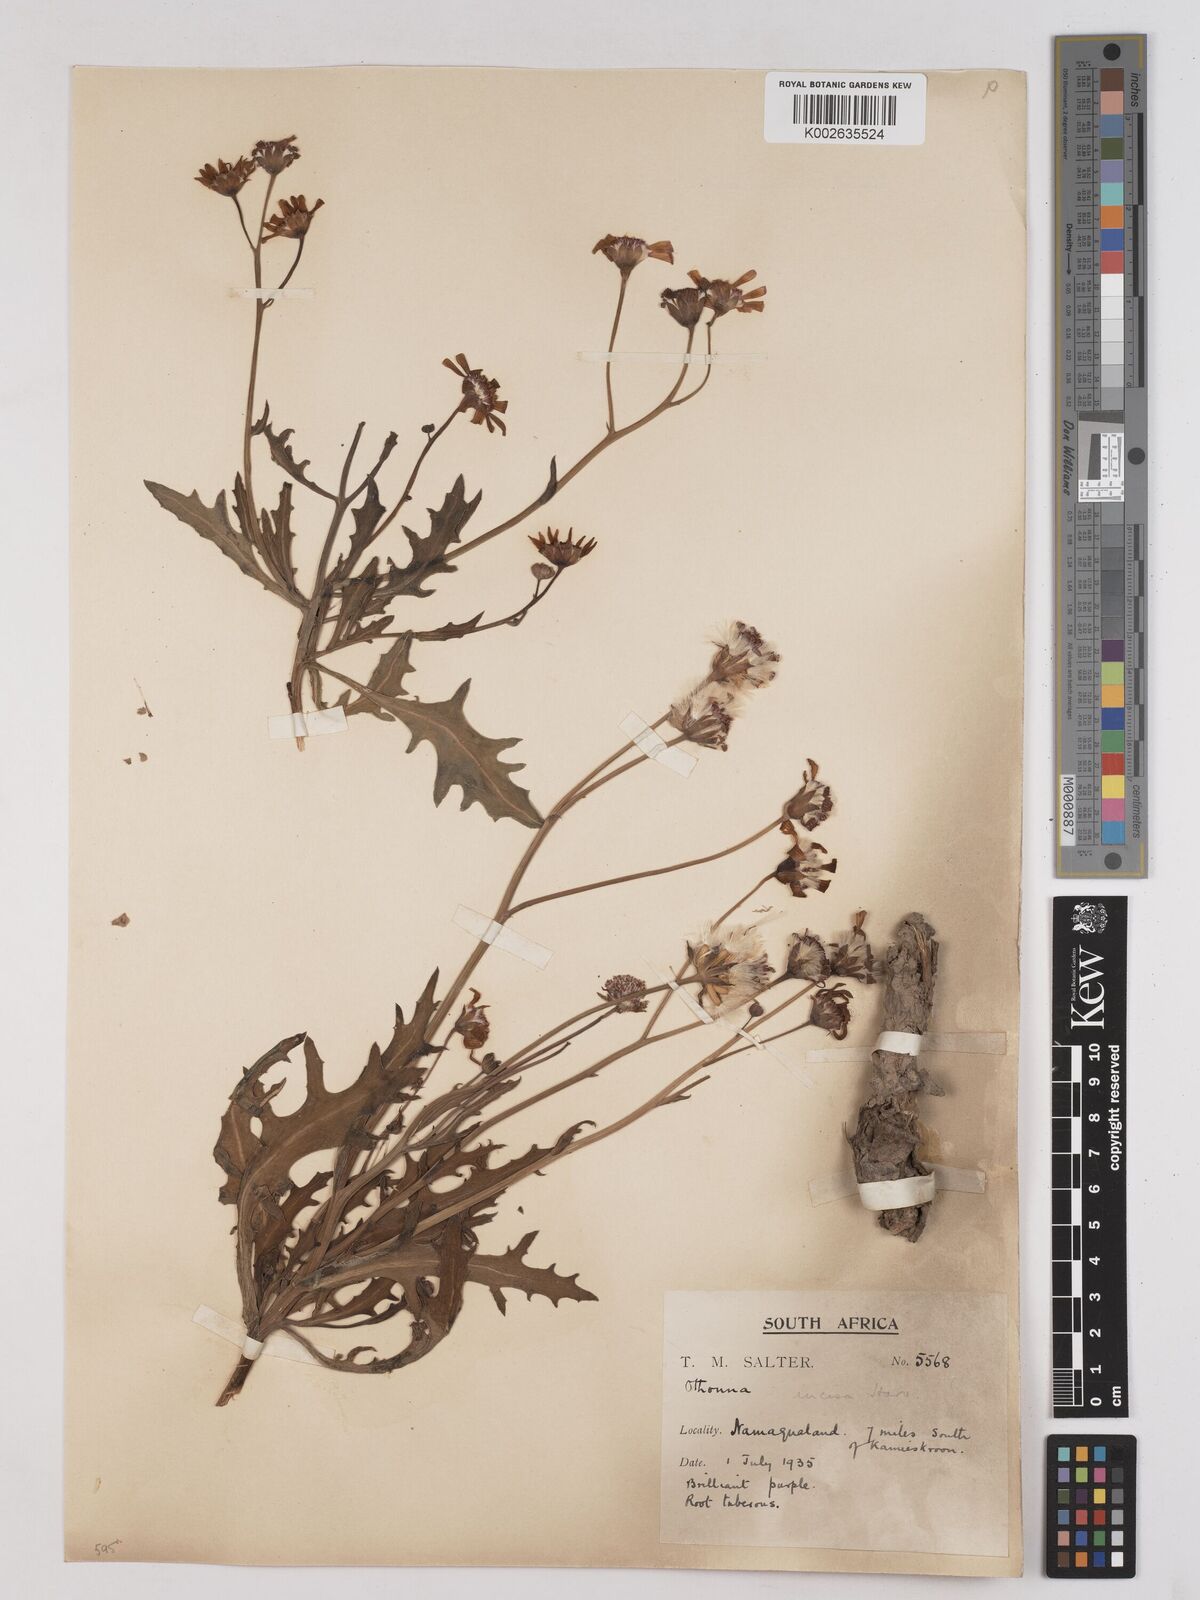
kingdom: Plantae
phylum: Tracheophyta
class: Magnoliopsida
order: Asterales
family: Asteraceae
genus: Othonna
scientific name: Othonna rosea
